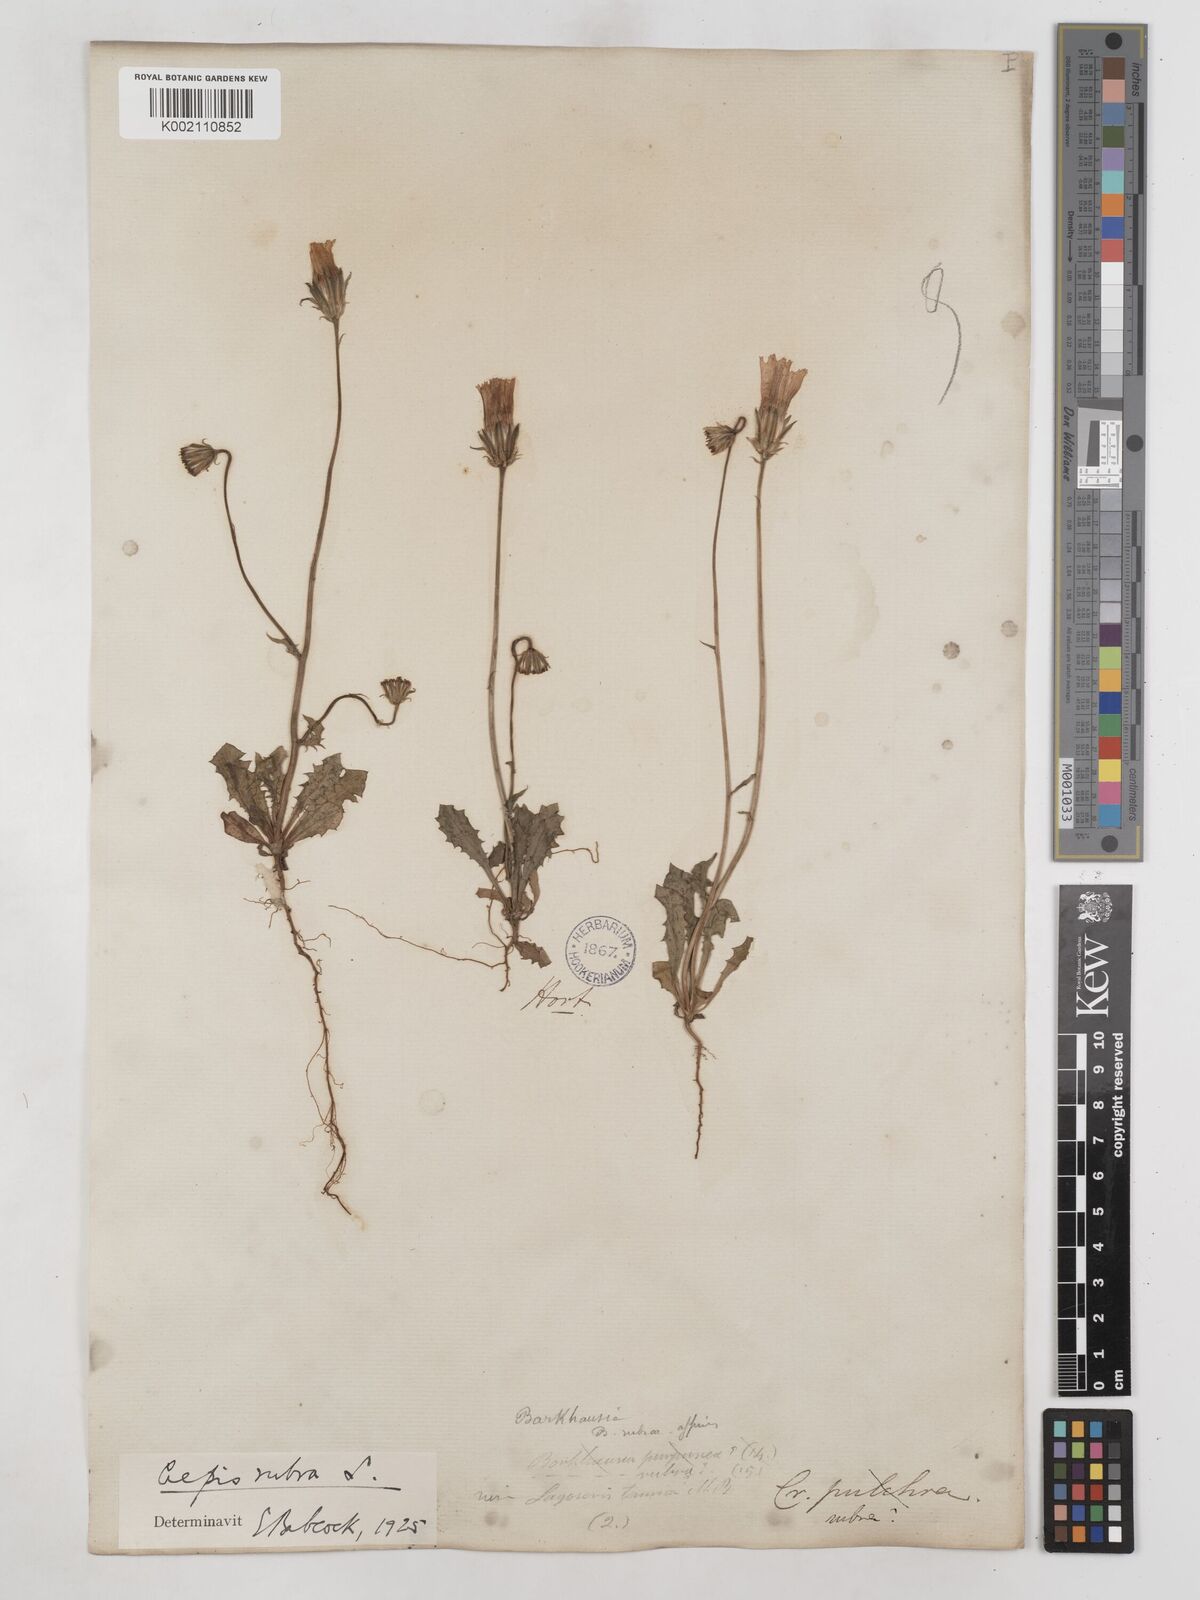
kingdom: Plantae
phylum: Tracheophyta
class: Magnoliopsida
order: Asterales
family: Asteraceae
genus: Crepis
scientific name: Crepis rubra
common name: Pink hawk's-beard
